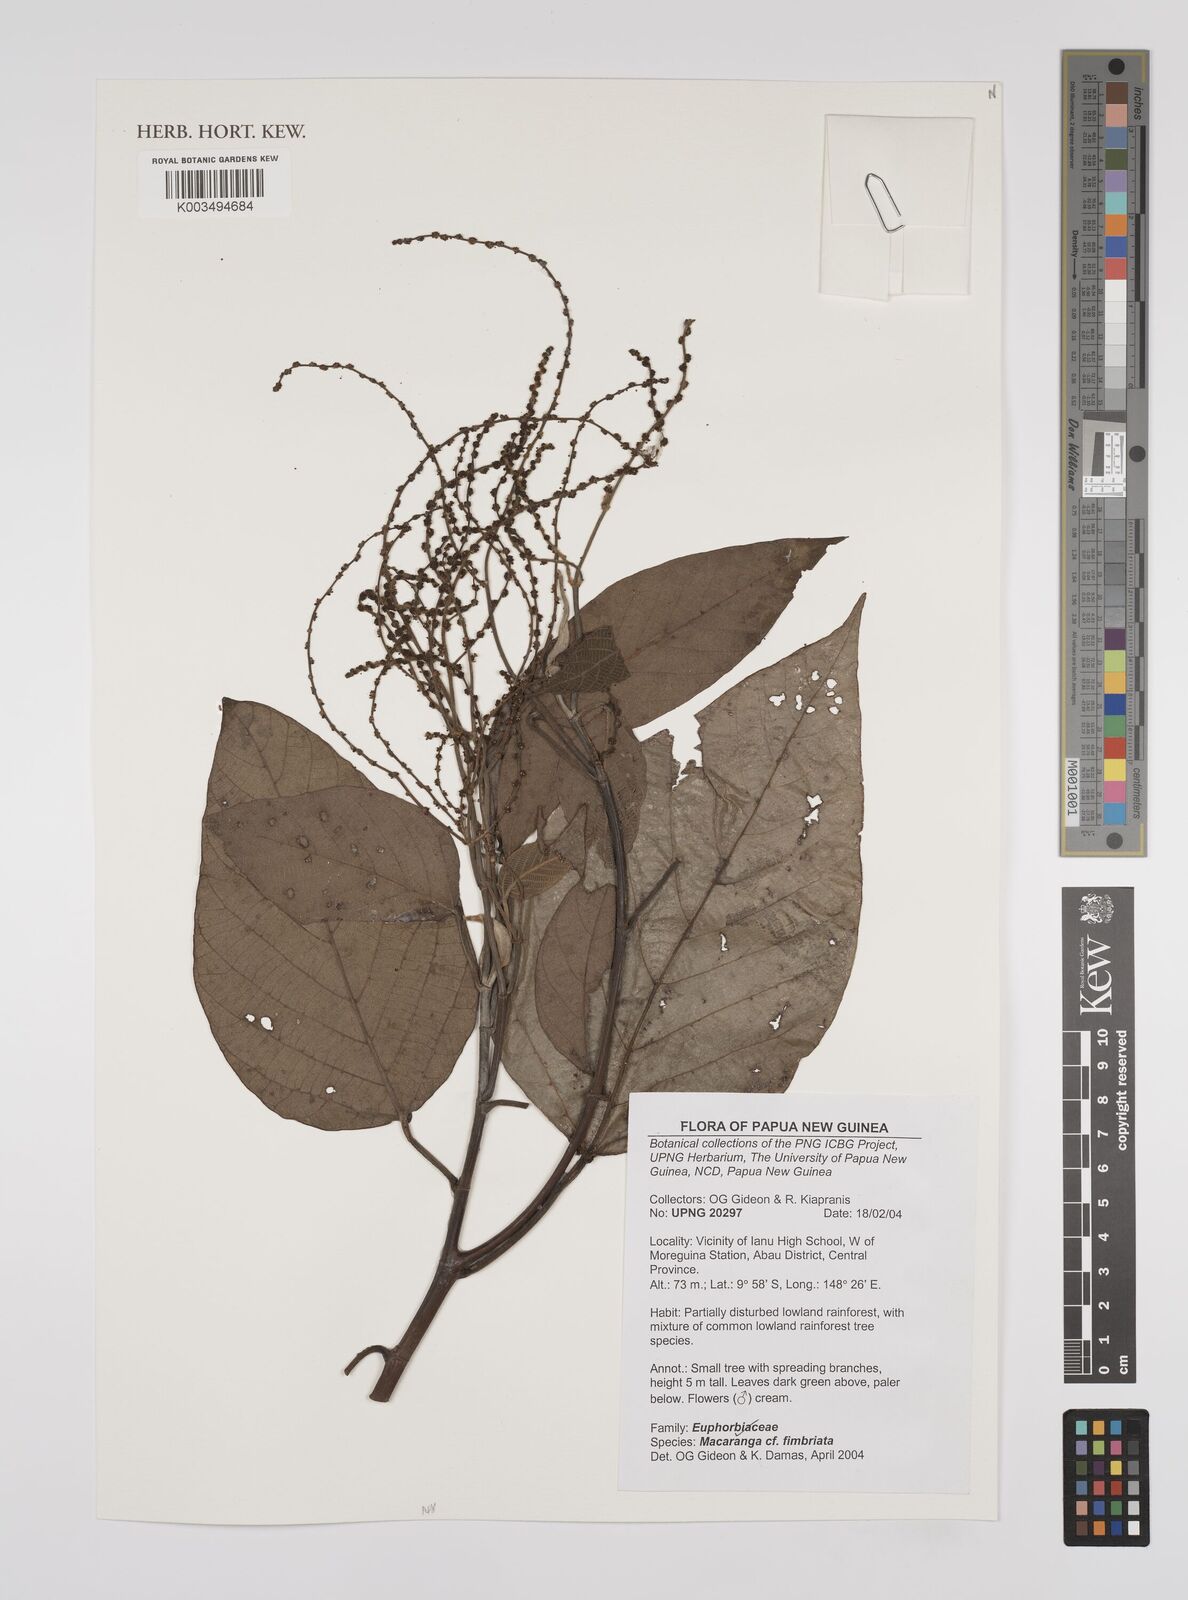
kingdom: Plantae
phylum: Tracheophyta
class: Magnoliopsida
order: Malpighiales
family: Euphorbiaceae
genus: Macaranga
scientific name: Macaranga polyadenia
